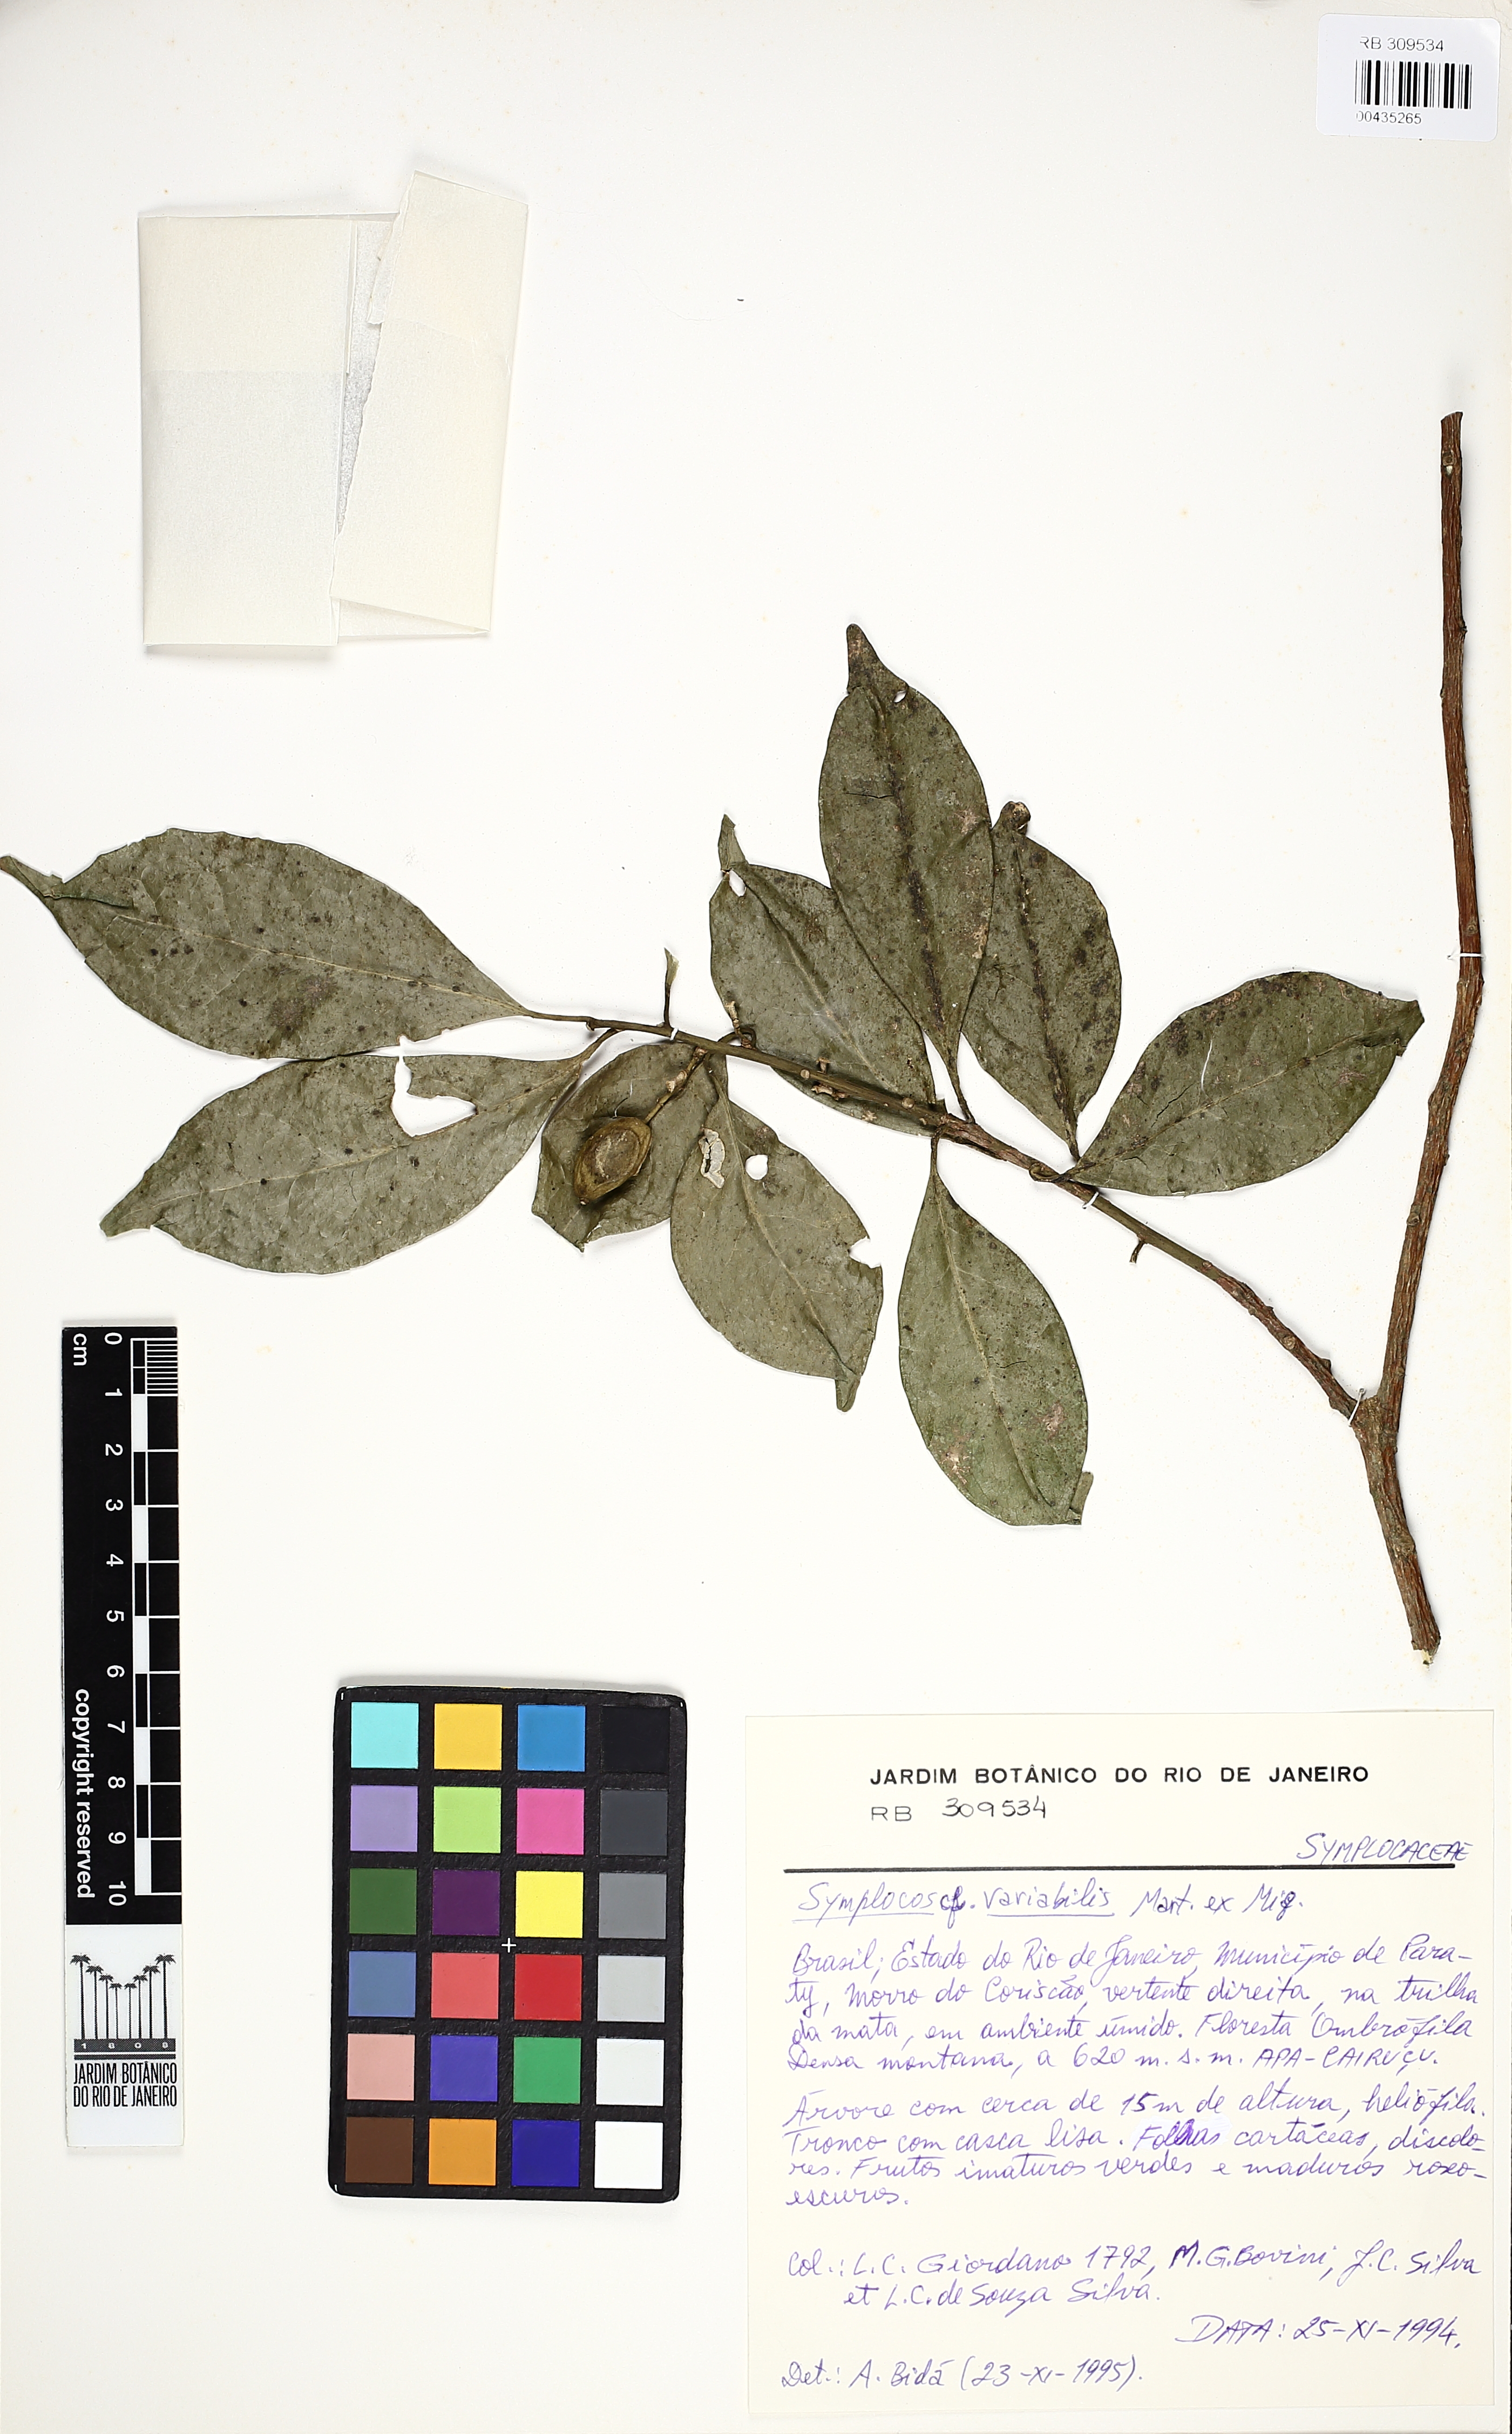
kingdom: Plantae
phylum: Tracheophyta
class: Magnoliopsida
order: Ericales
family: Symplocaceae
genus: Symplocos
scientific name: Symplocos estrellensis
